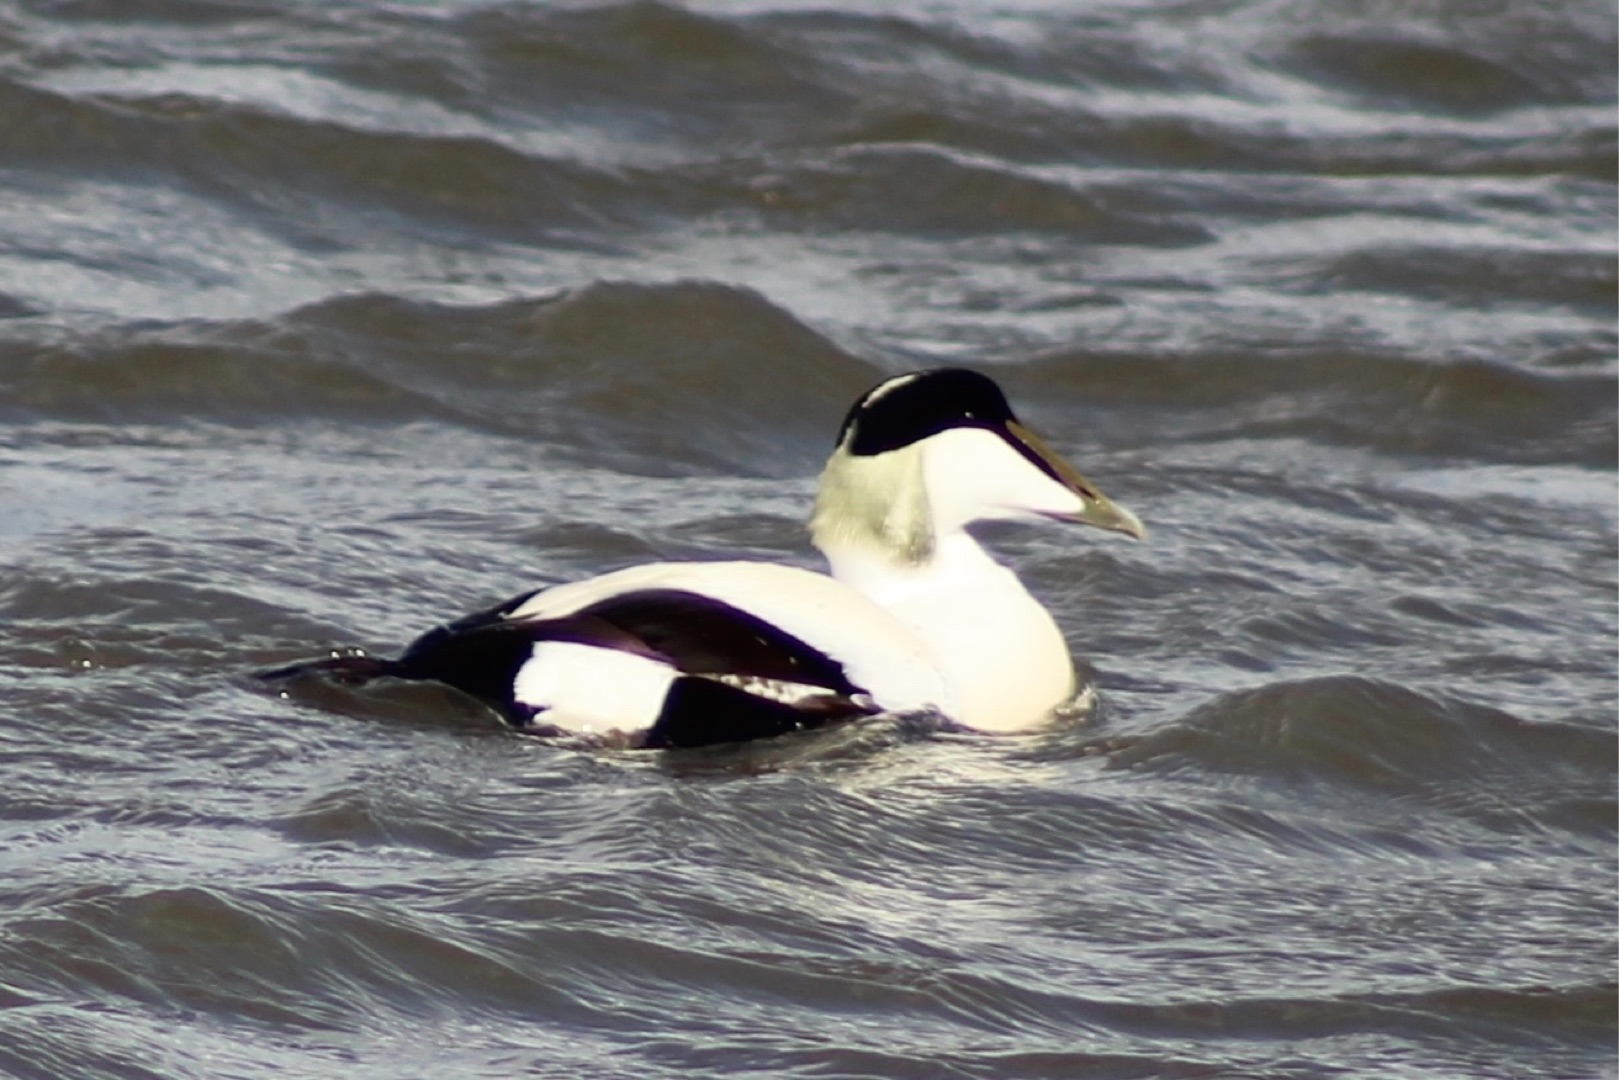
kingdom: Animalia
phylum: Chordata
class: Aves
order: Anseriformes
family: Anatidae
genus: Somateria
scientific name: Somateria mollissima
